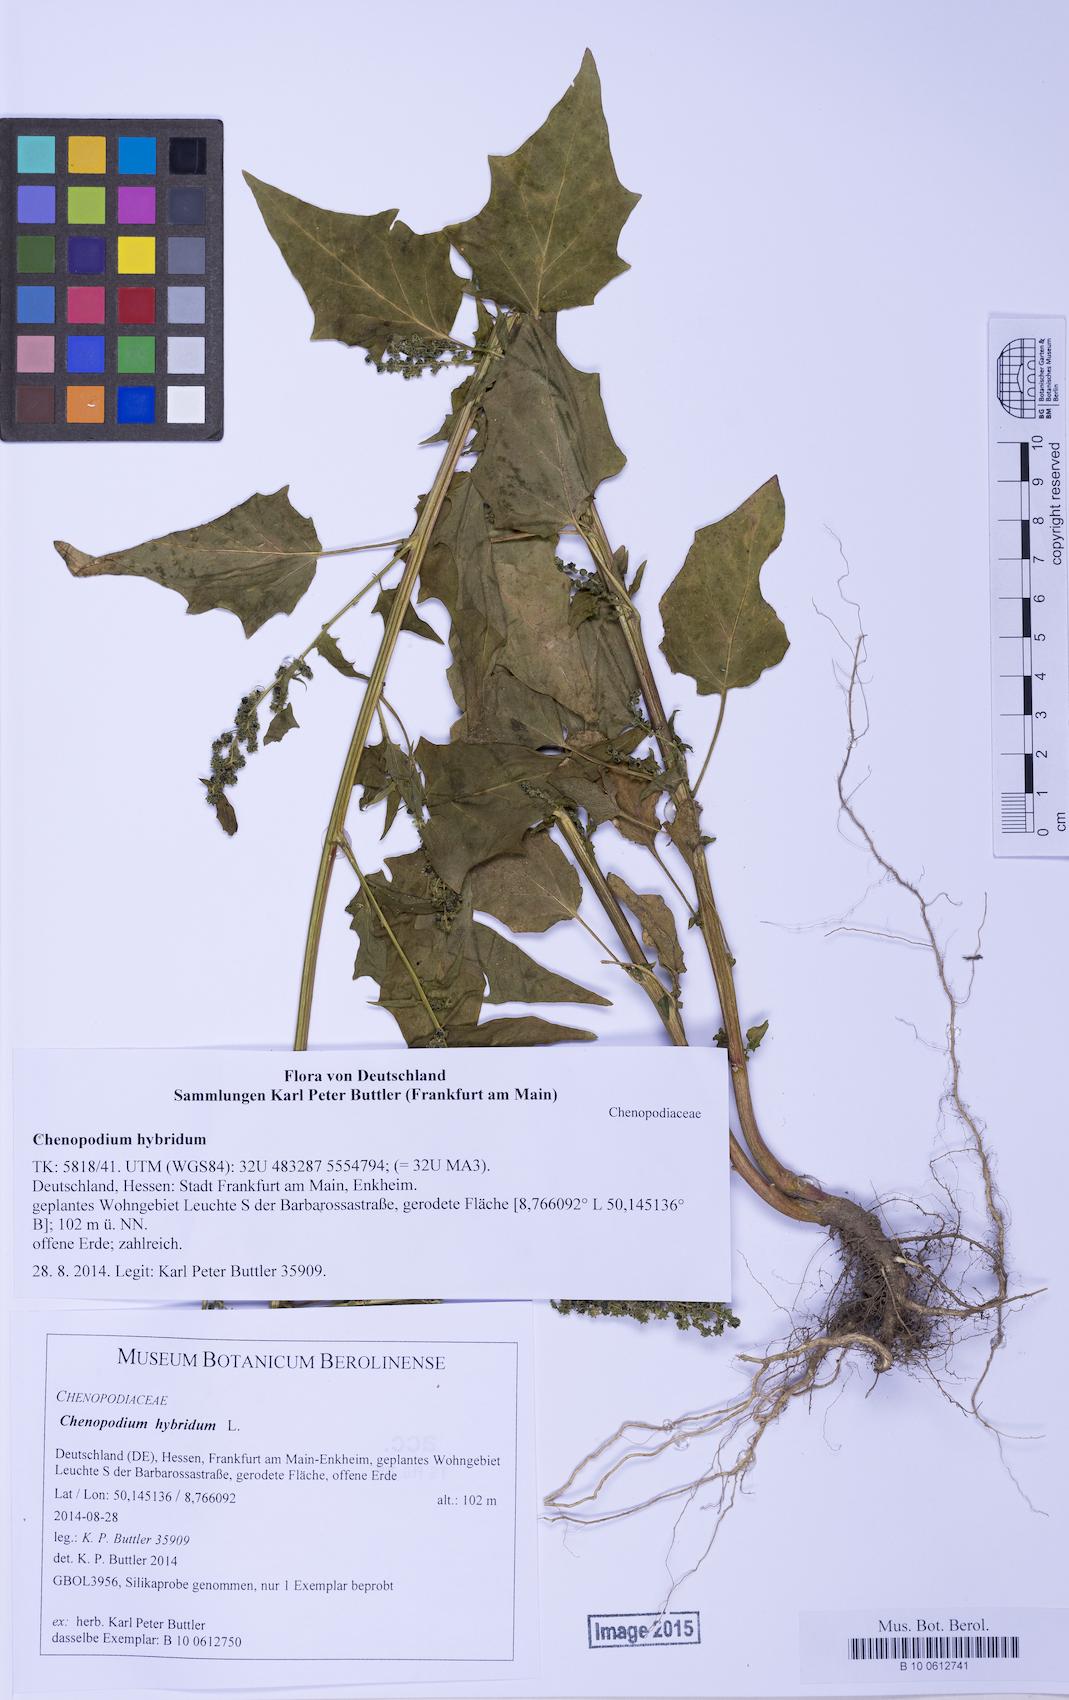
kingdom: Plantae
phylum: Tracheophyta
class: Magnoliopsida
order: Caryophyllales
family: Amaranthaceae
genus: Chenopodiastrum
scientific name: Chenopodiastrum hybridum
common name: Mapleleaf goosefoot
